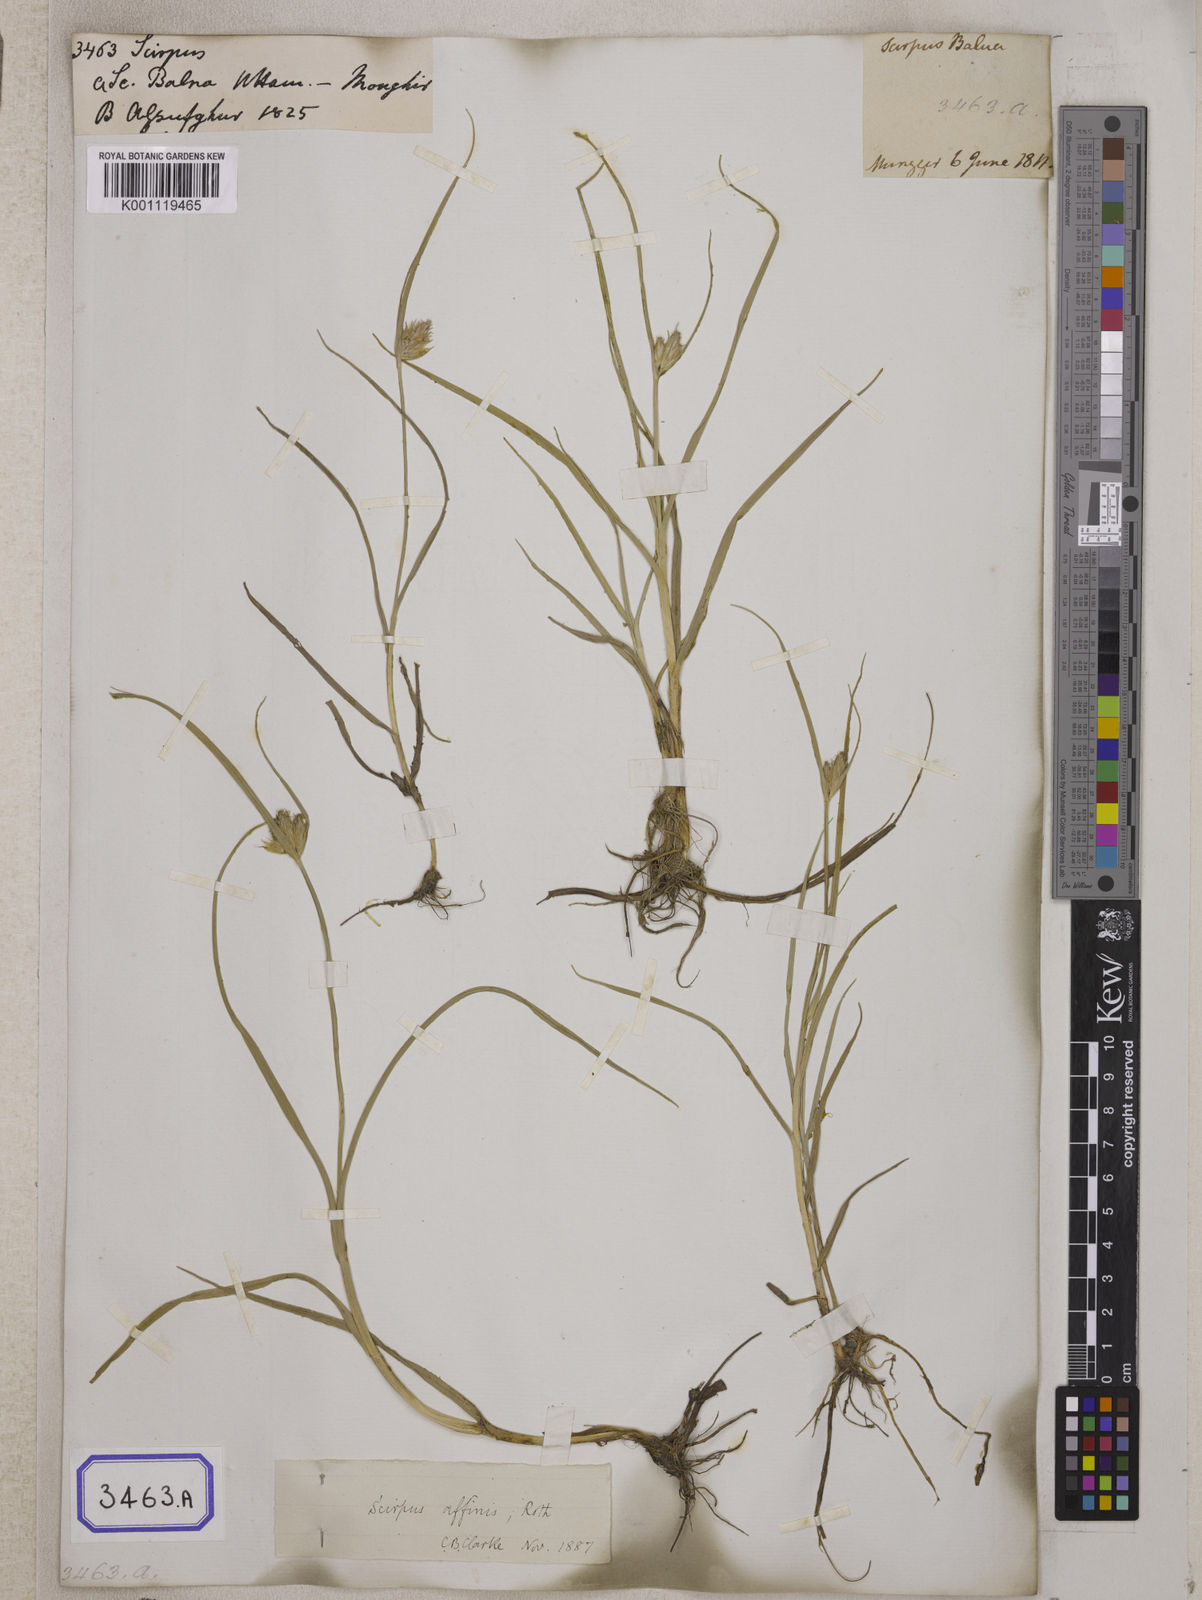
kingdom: Plantae
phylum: Tracheophyta
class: Liliopsida
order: Poales
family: Cyperaceae
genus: Scirpus
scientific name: Scirpus
